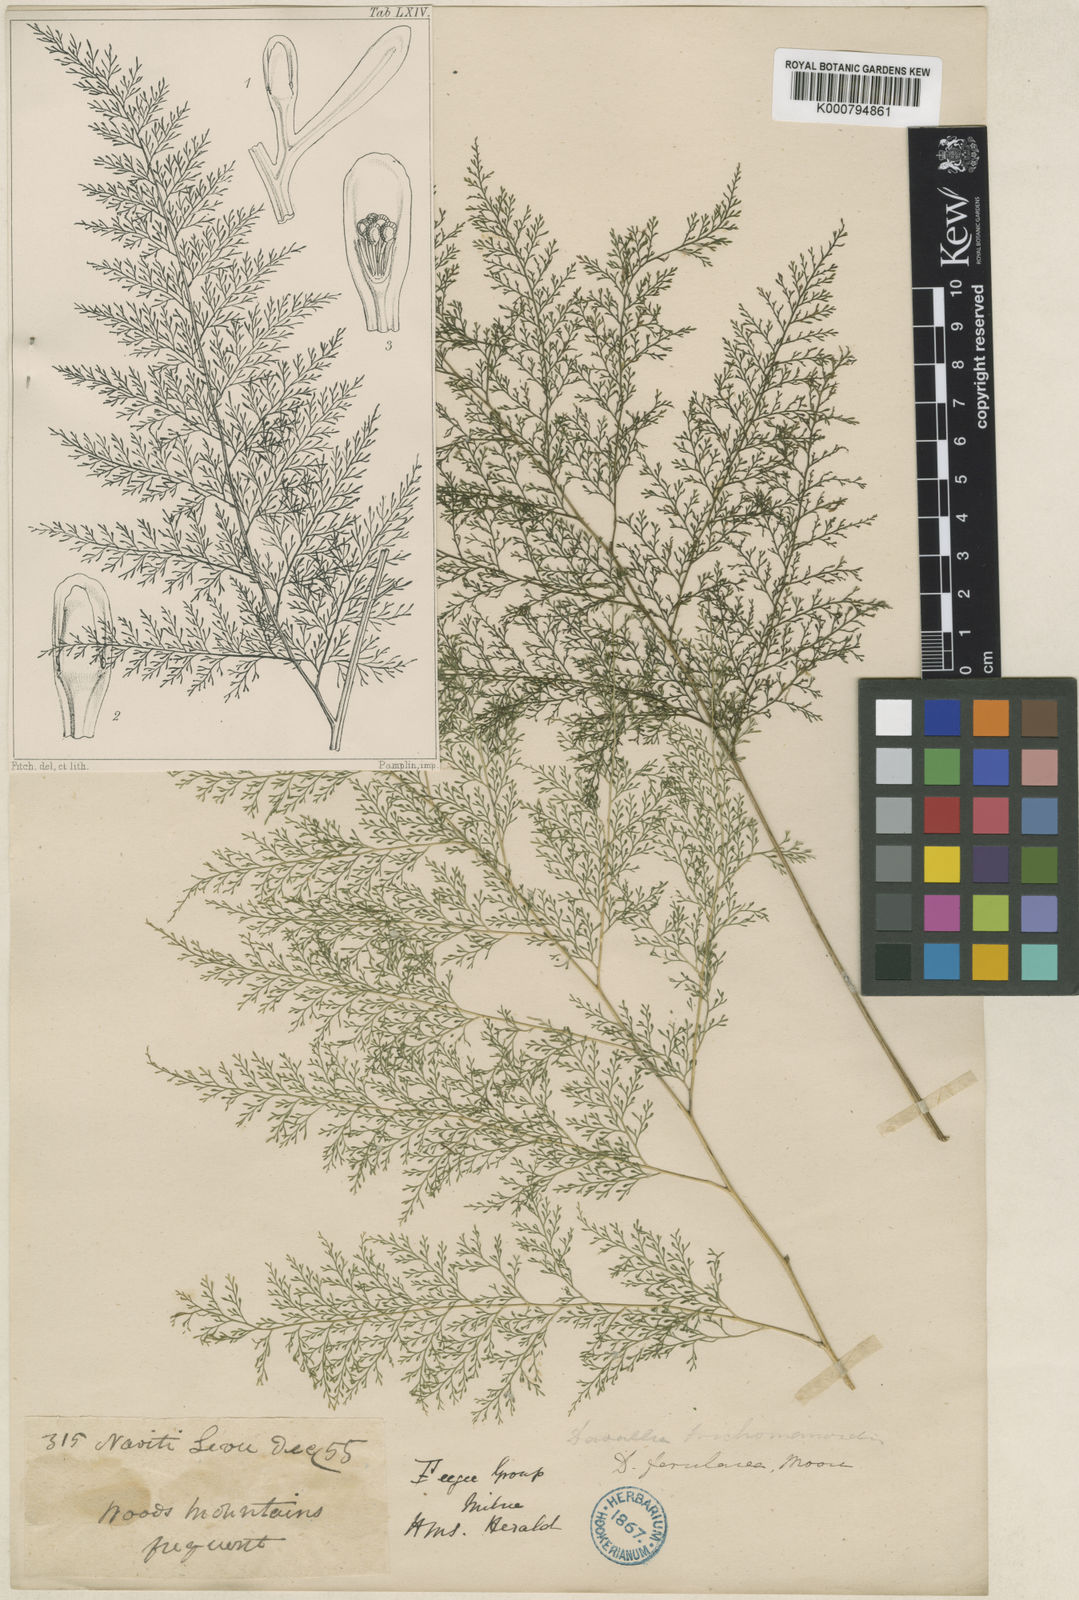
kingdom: Plantae
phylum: Tracheophyta
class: Polypodiopsida
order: Polypodiales
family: Saccolomataceae
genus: Orthiopteris
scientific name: Orthiopteris ferulacea
